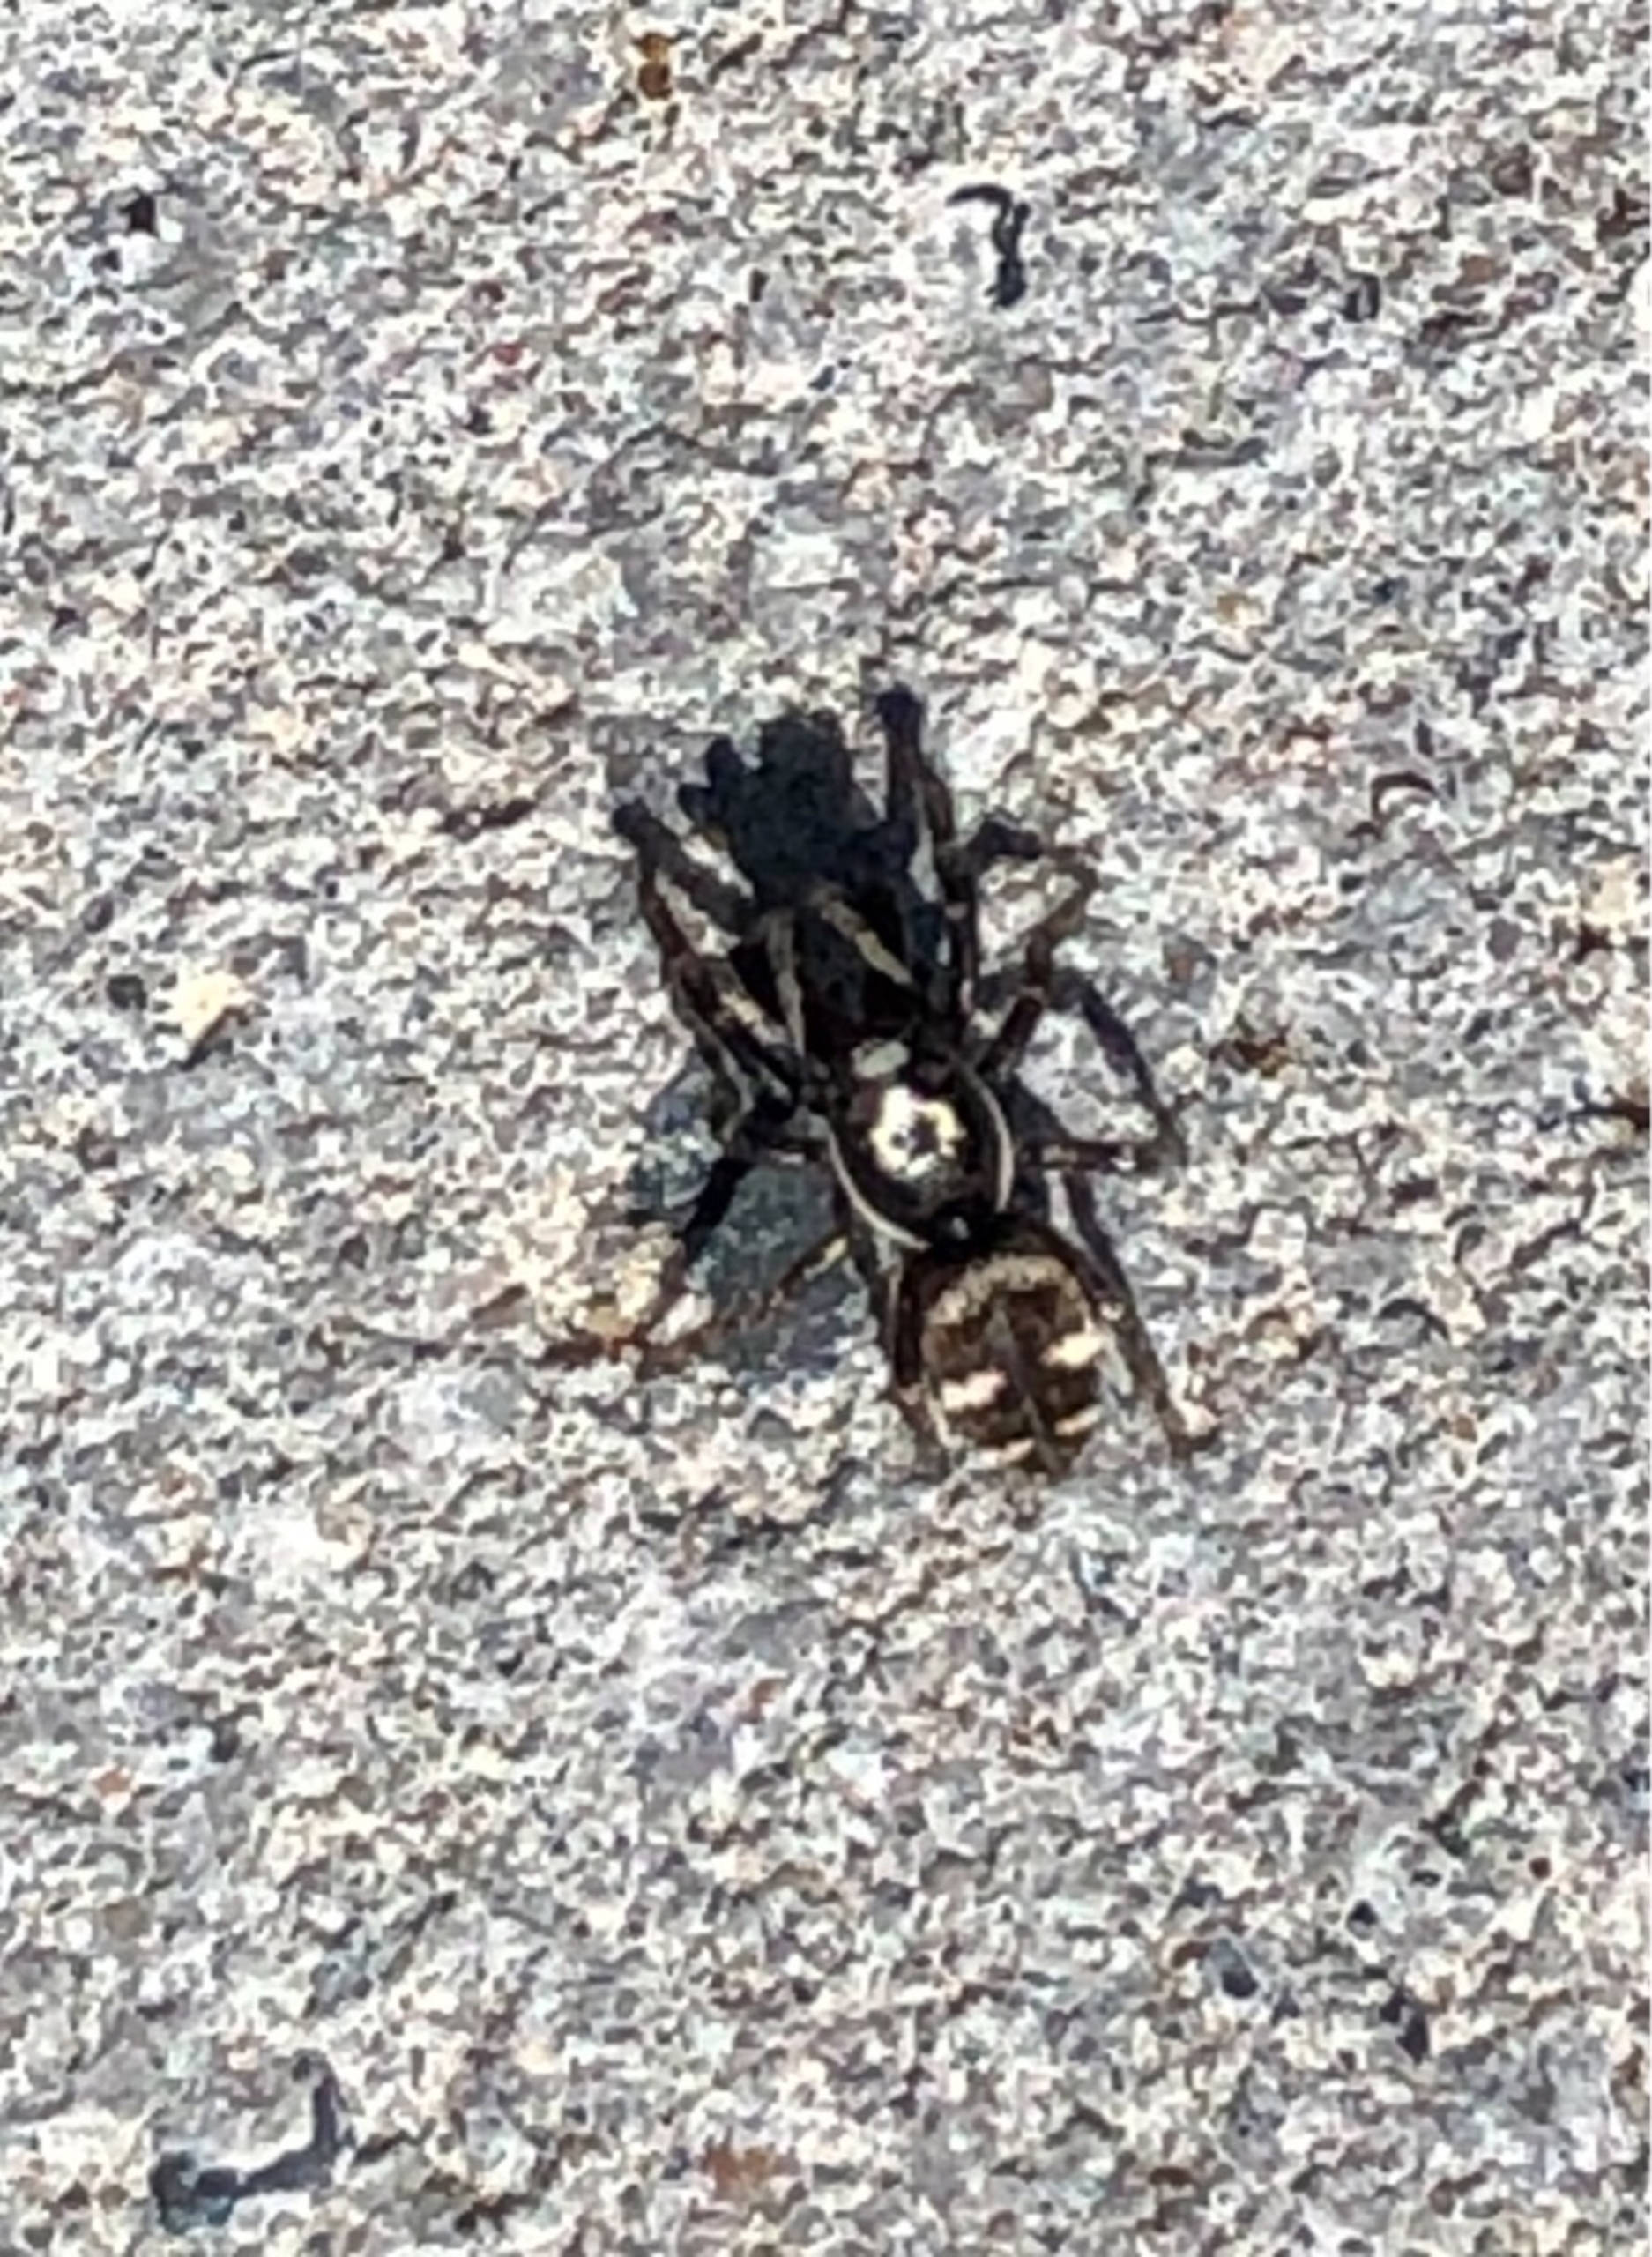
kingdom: Animalia
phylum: Arthropoda
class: Arachnida
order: Araneae
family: Salticidae
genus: Salticus
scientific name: Salticus scenicus
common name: Almindelig zebraedderkop
